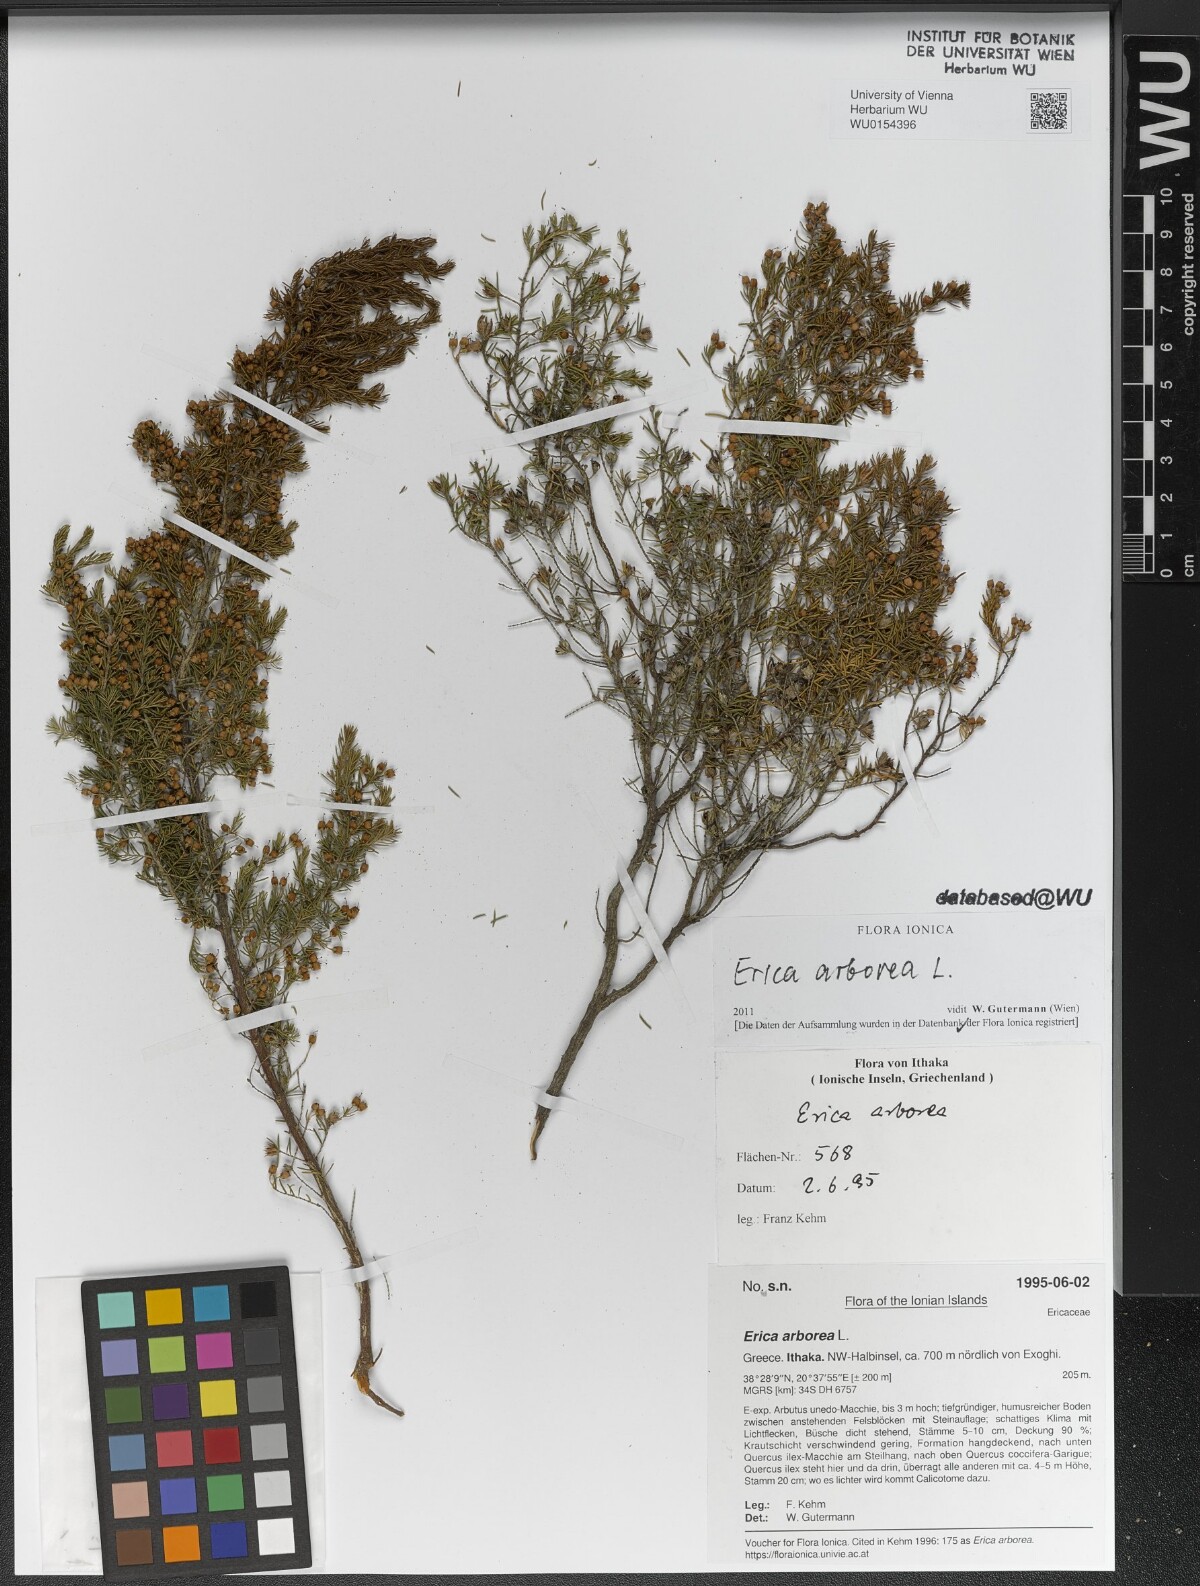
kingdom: Plantae
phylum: Tracheophyta
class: Magnoliopsida
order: Ericales
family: Ericaceae
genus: Erica
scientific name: Erica arborea
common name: Tree heath
